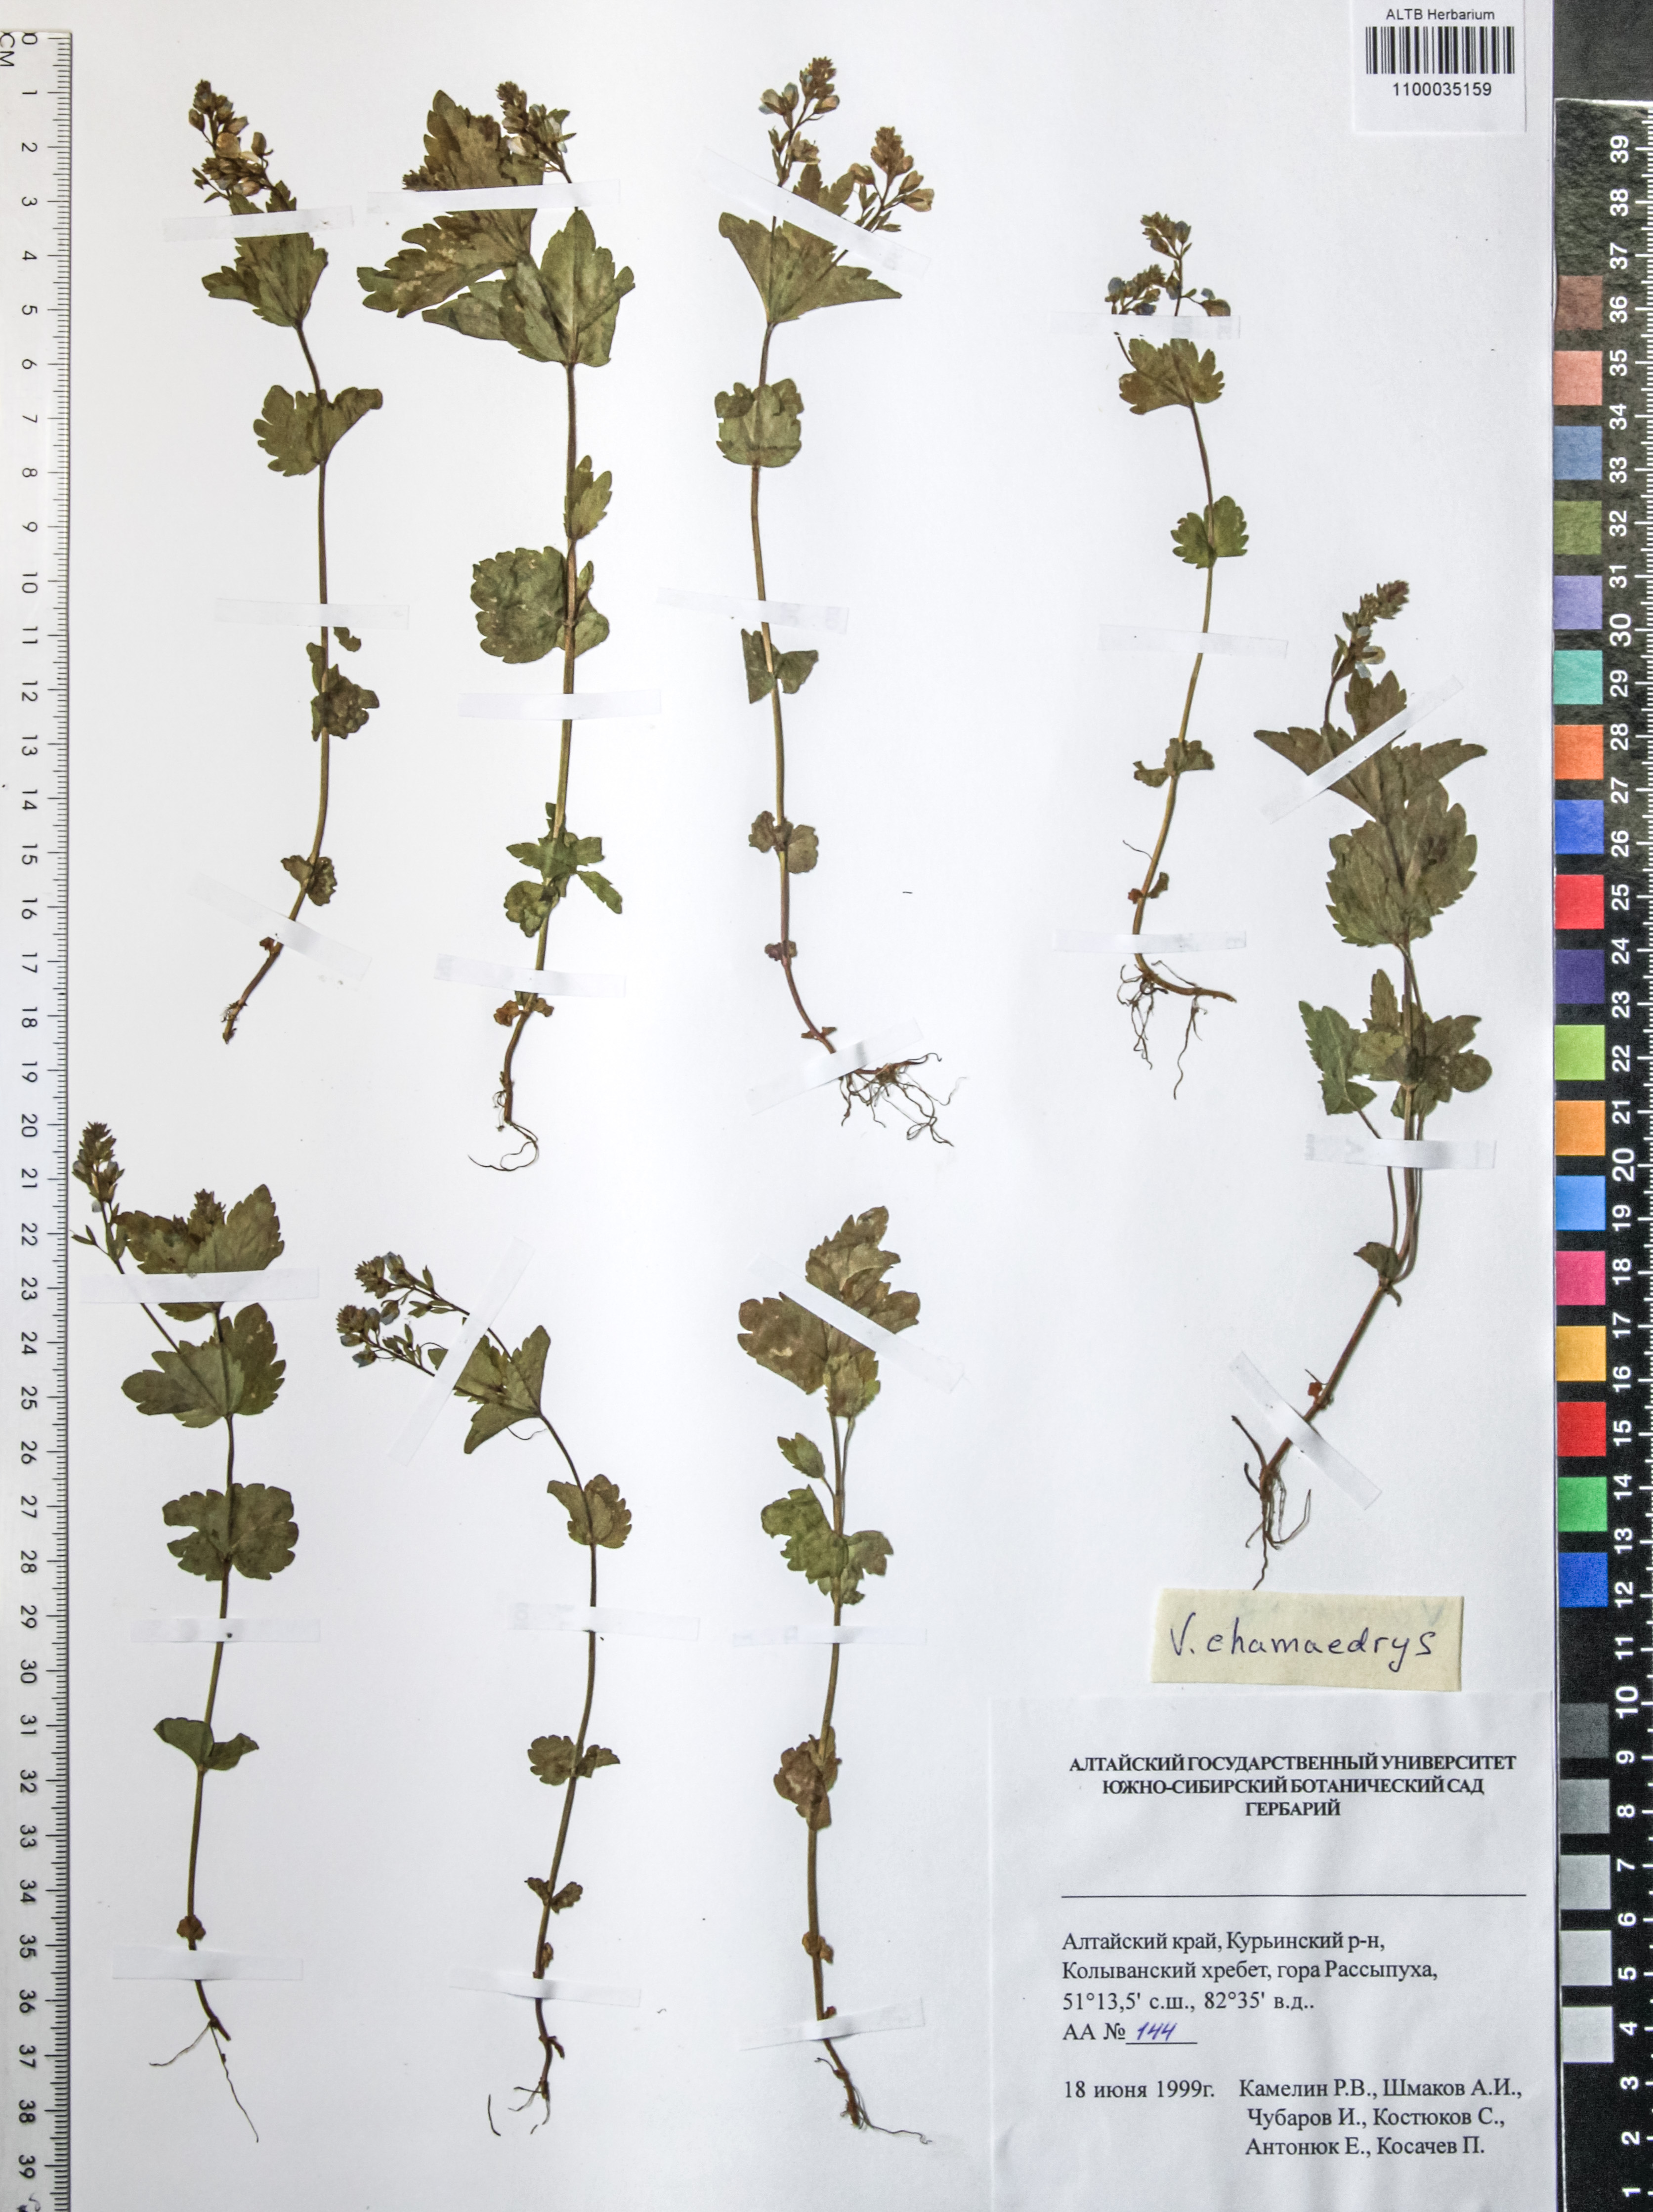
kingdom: Plantae
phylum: Tracheophyta
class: Magnoliopsida
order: Lamiales
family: Plantaginaceae
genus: Veronica
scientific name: Veronica chamaedrys
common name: Germander speedwell
